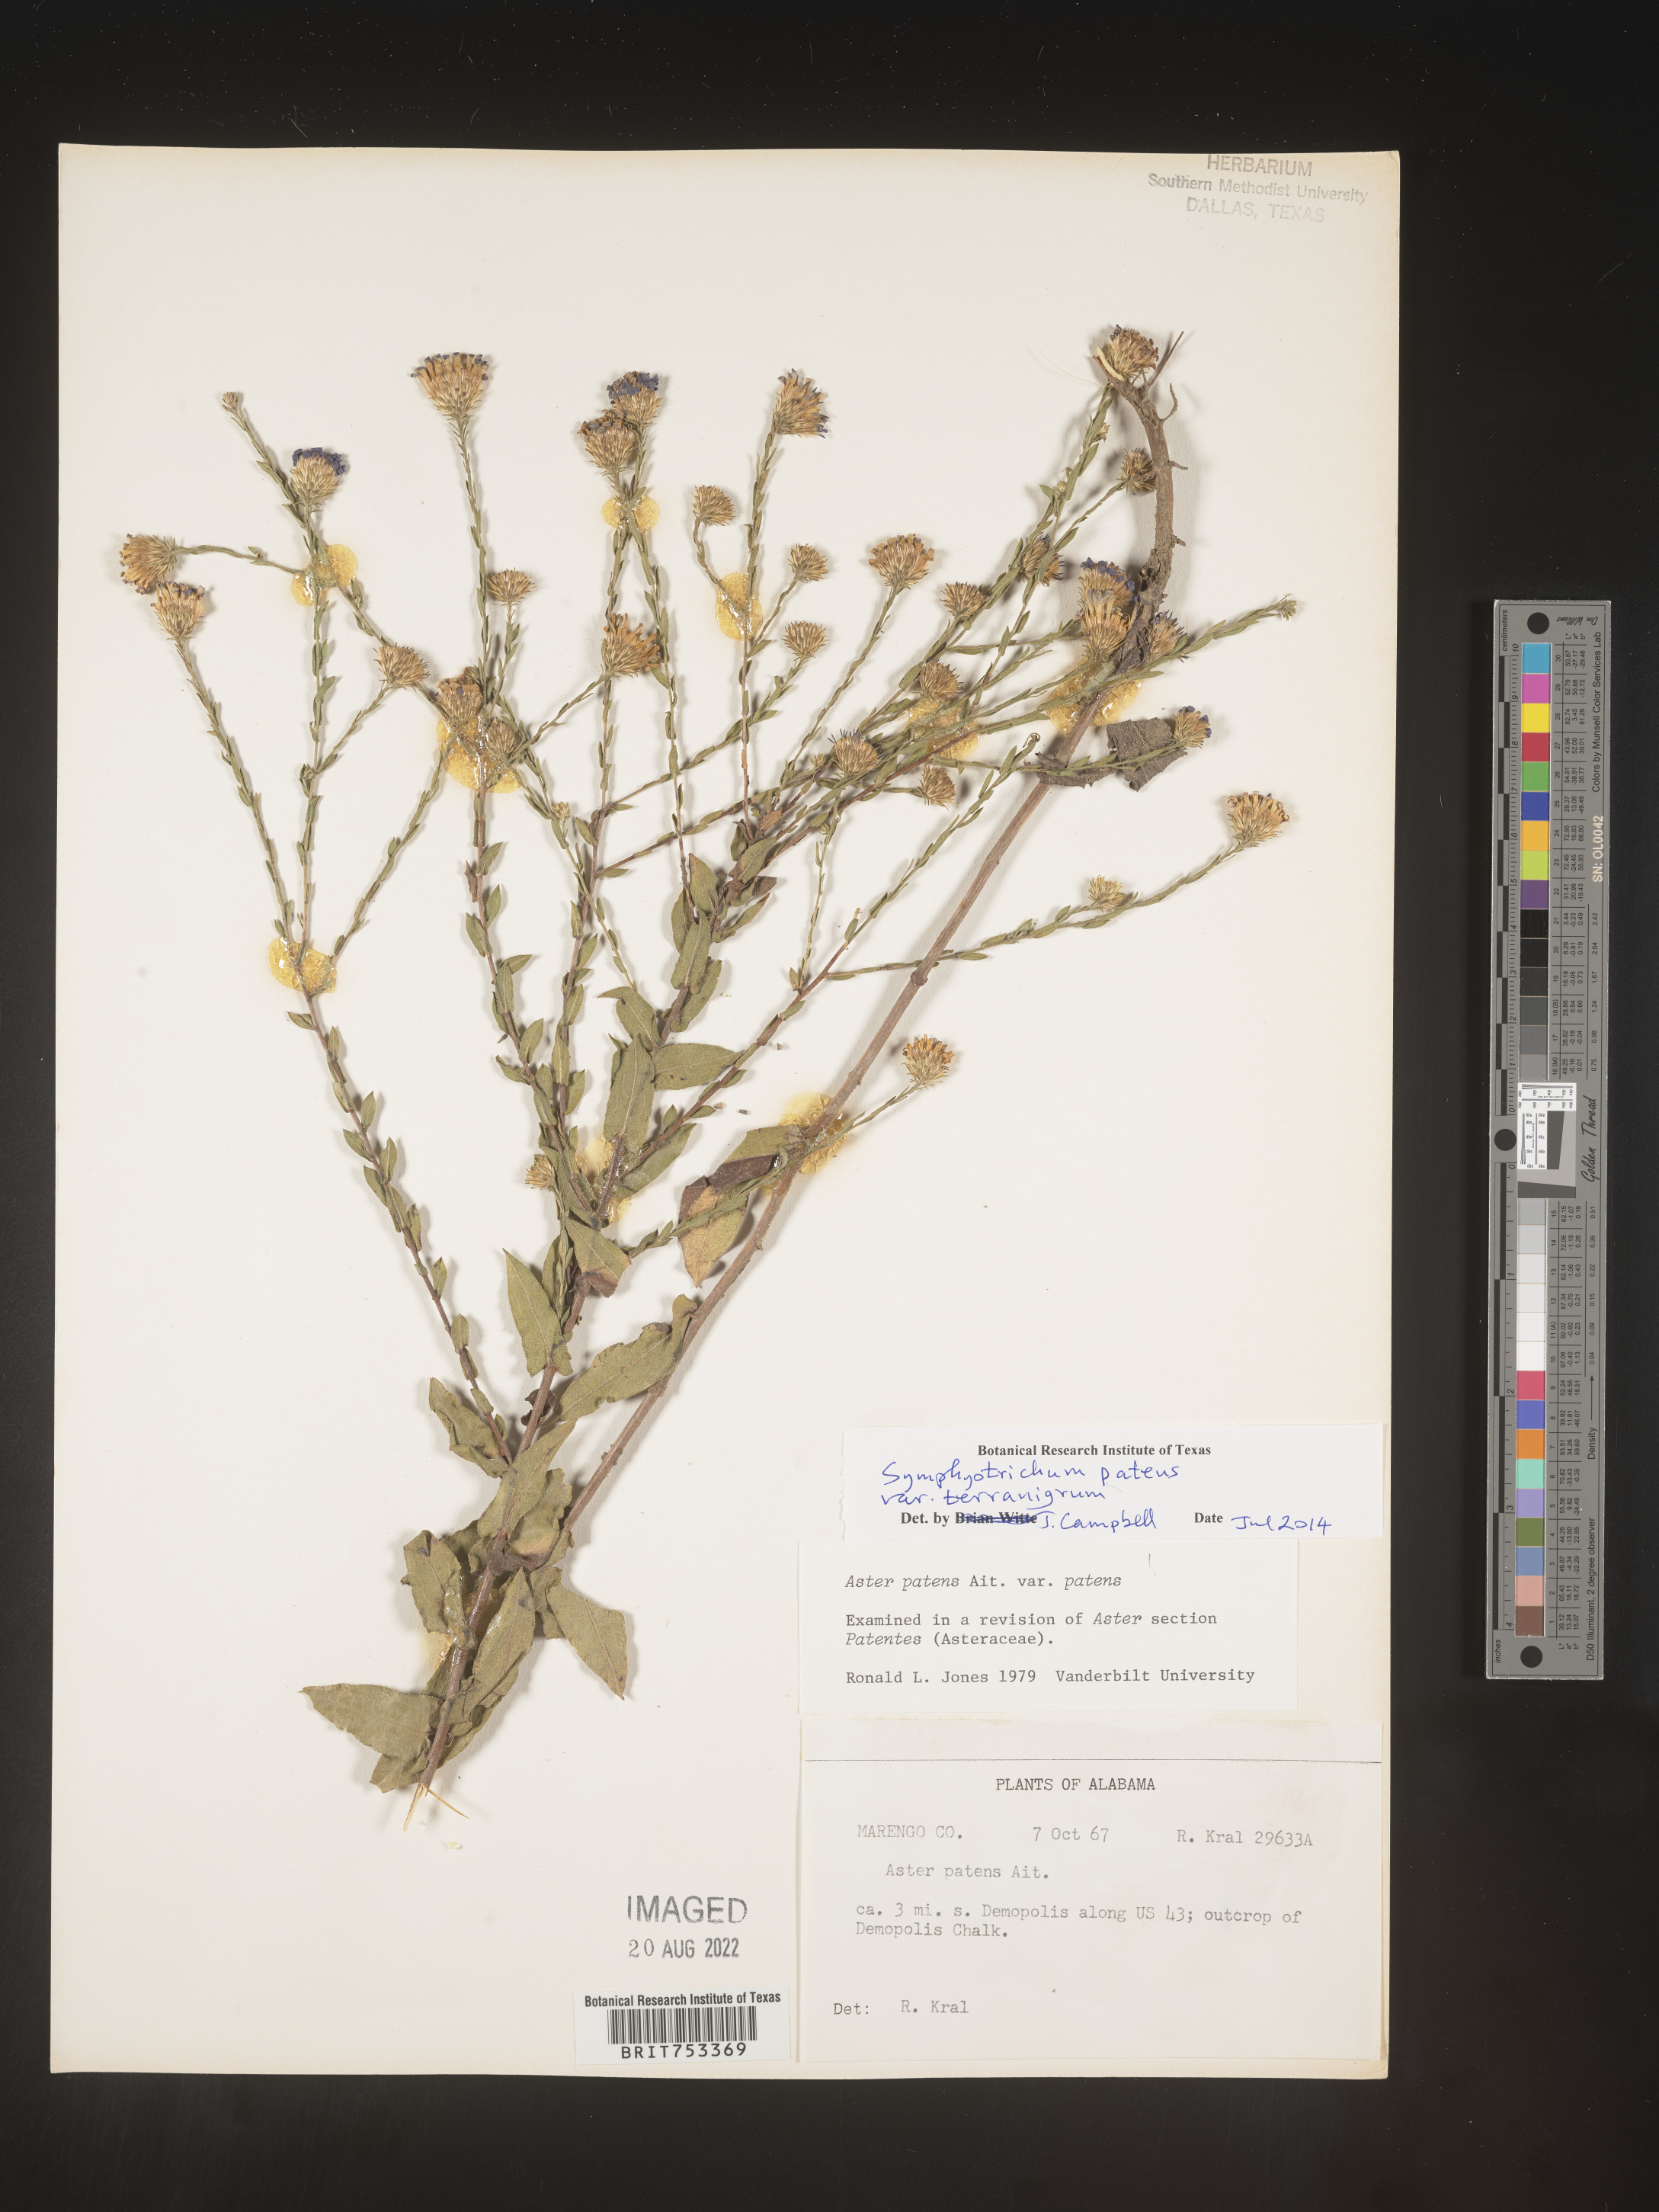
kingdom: Plantae
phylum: Tracheophyta
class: Magnoliopsida
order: Asterales
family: Asteraceae
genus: Symphyotrichum
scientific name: Symphyotrichum patens
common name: Late purple aster
